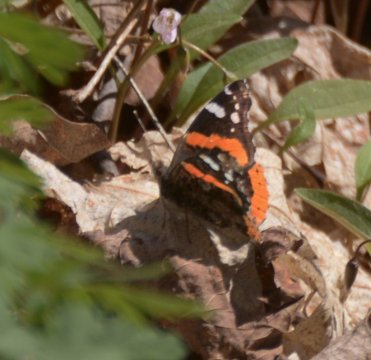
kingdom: Animalia
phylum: Arthropoda
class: Insecta
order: Lepidoptera
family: Nymphalidae
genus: Vanessa
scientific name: Vanessa atalanta
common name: Red Admiral
